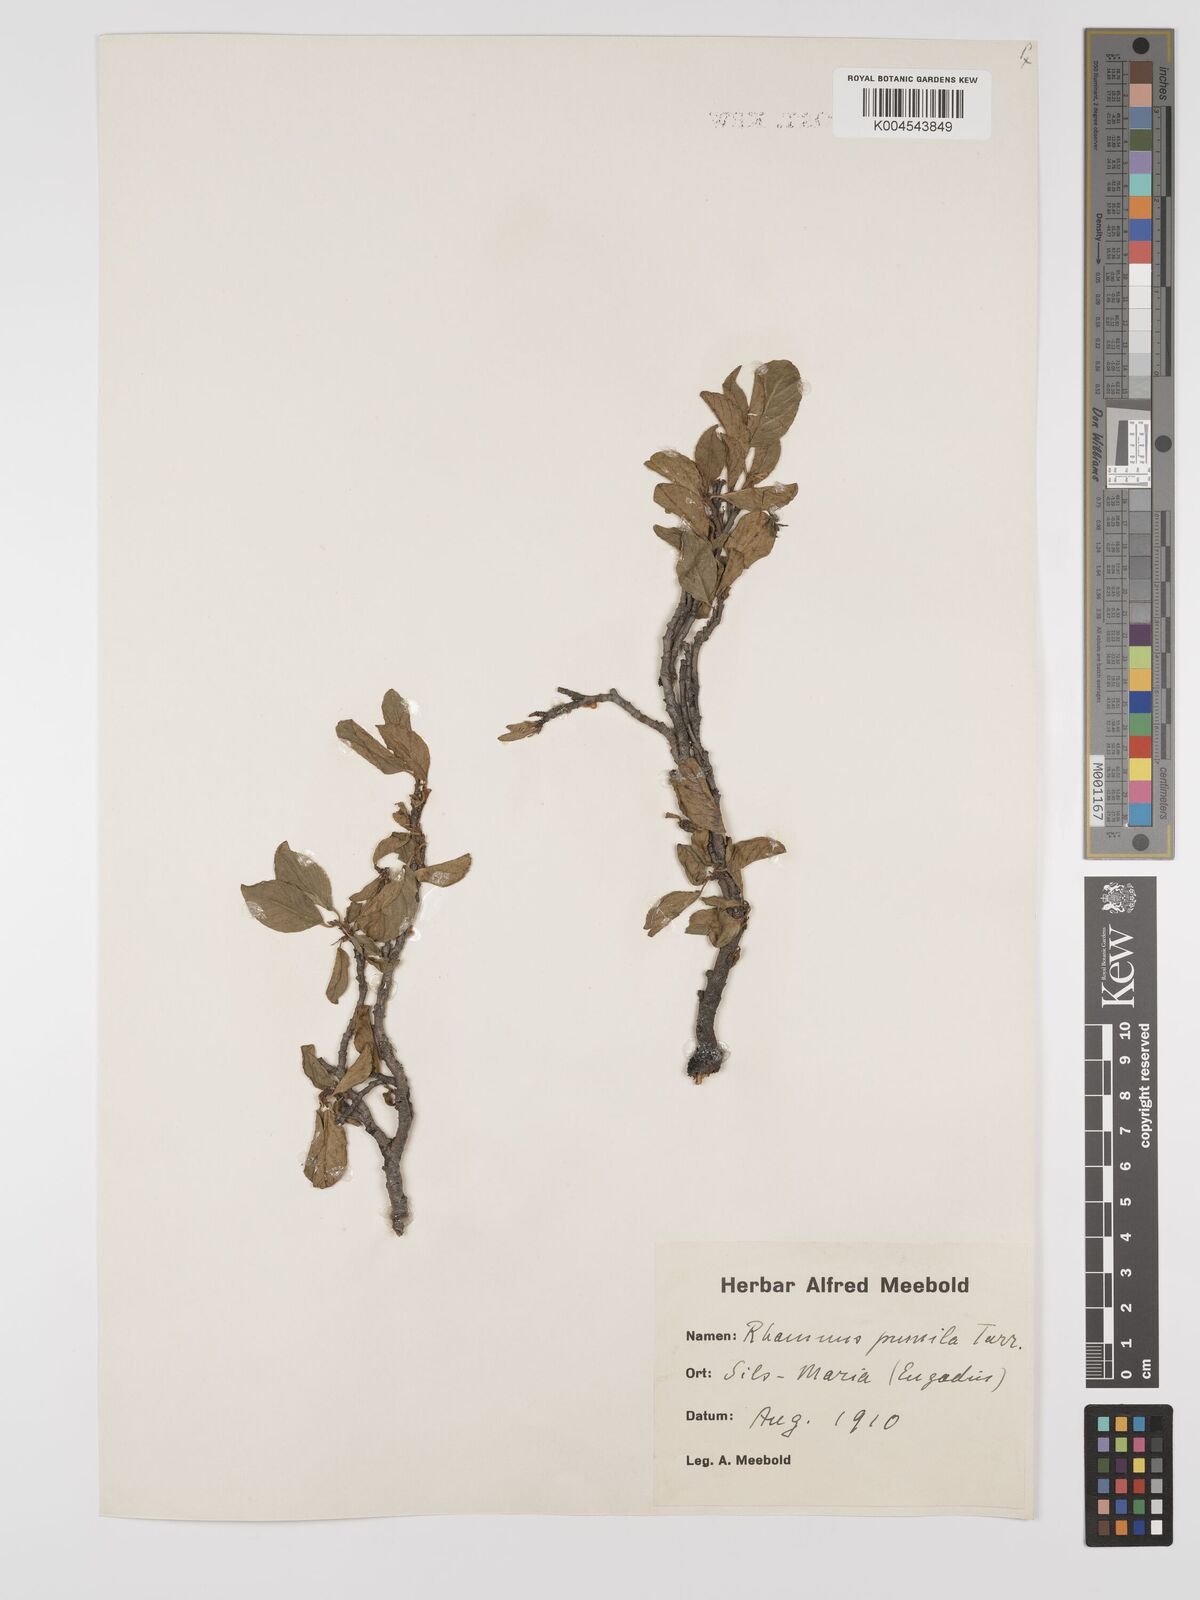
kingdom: Plantae
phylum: Tracheophyta
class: Magnoliopsida
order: Rosales
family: Rhamnaceae
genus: Rhamnus
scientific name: Rhamnus
